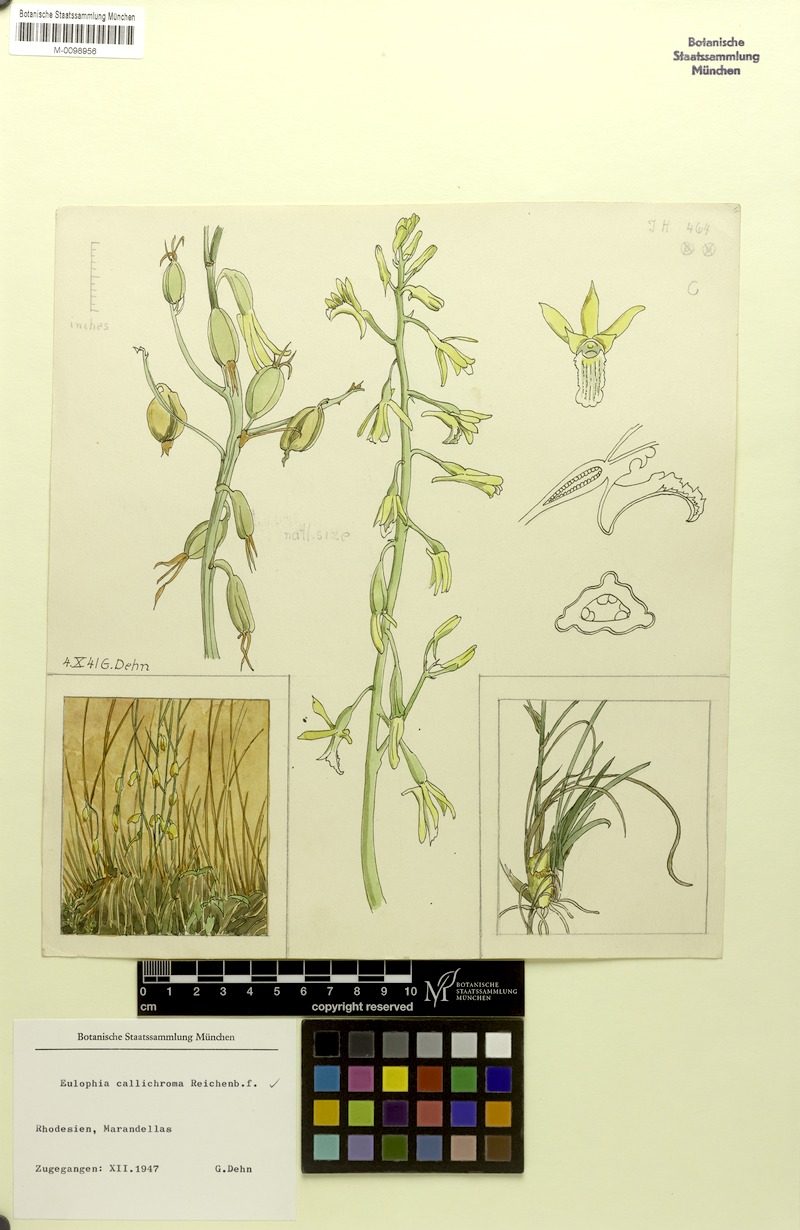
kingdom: Plantae
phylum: Tracheophyta
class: Liliopsida
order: Asparagales
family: Orchidaceae
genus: Eulophia
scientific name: Eulophia callichroma
